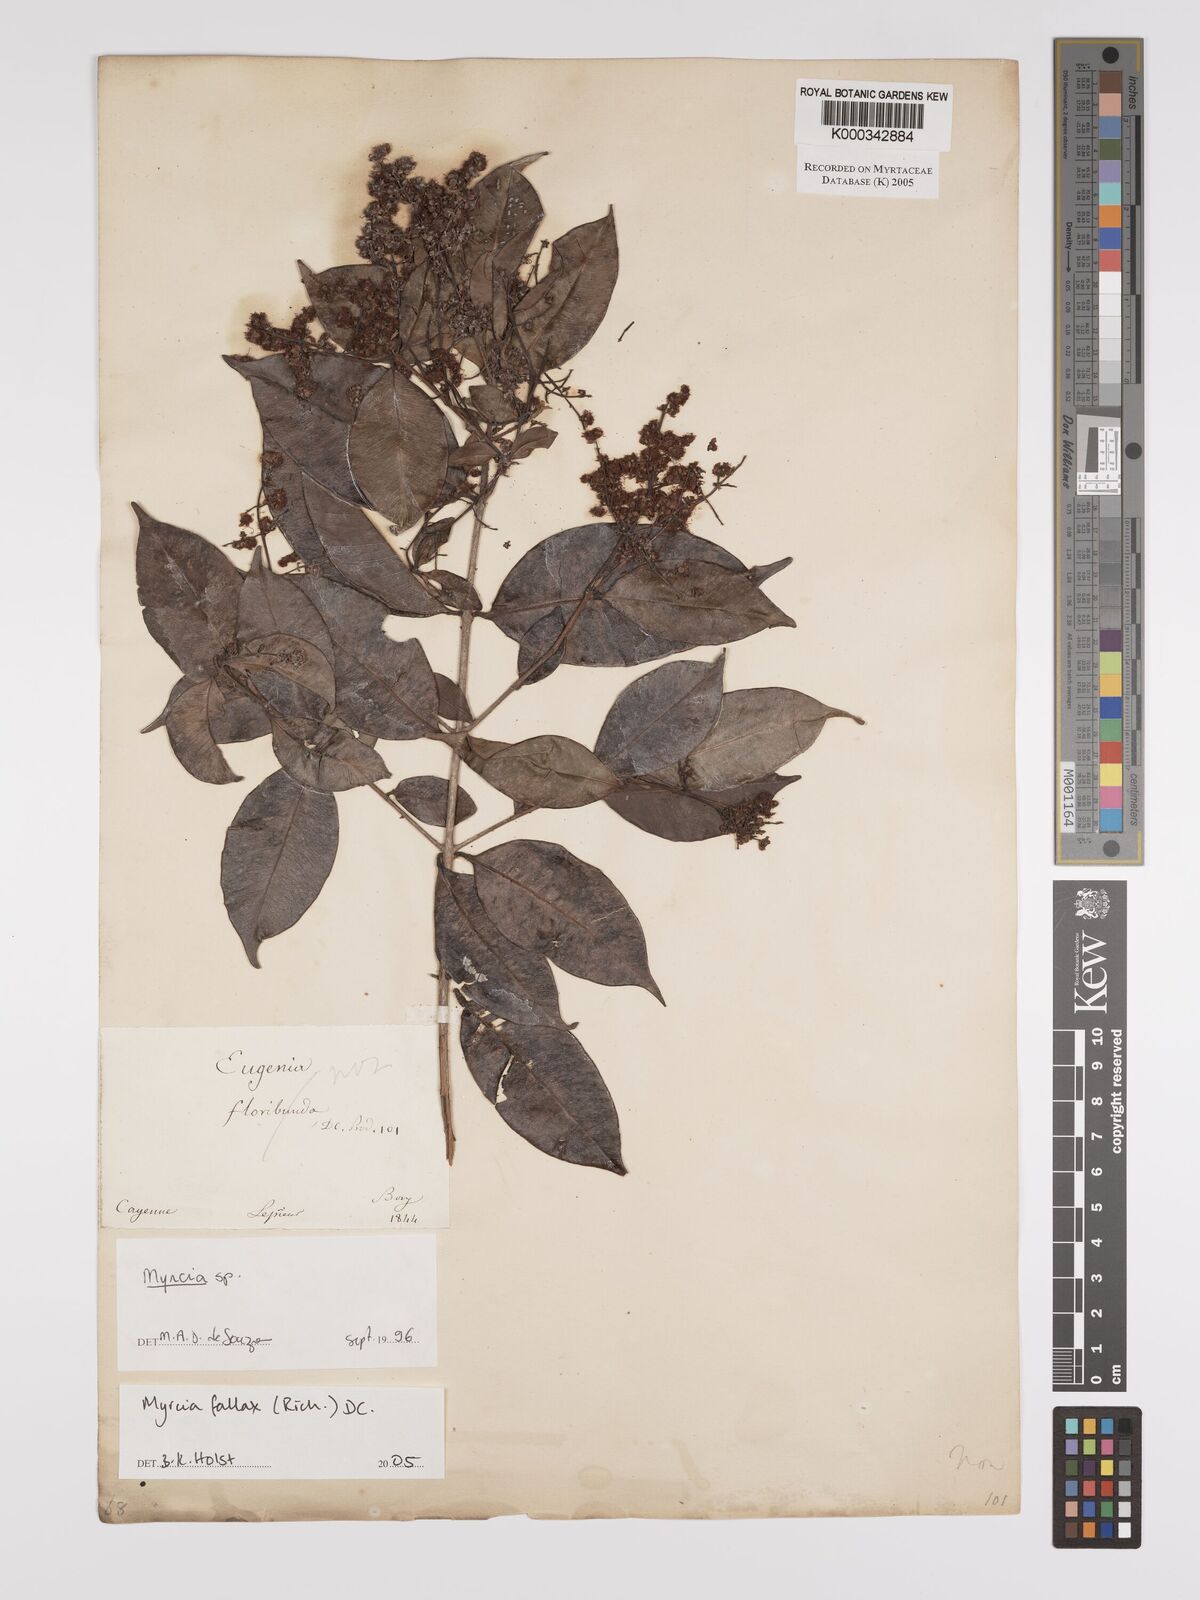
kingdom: Plantae
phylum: Tracheophyta
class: Magnoliopsida
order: Myrtales
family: Myrtaceae
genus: Myrcia
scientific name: Myrcia splendens
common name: Surinam cherry
